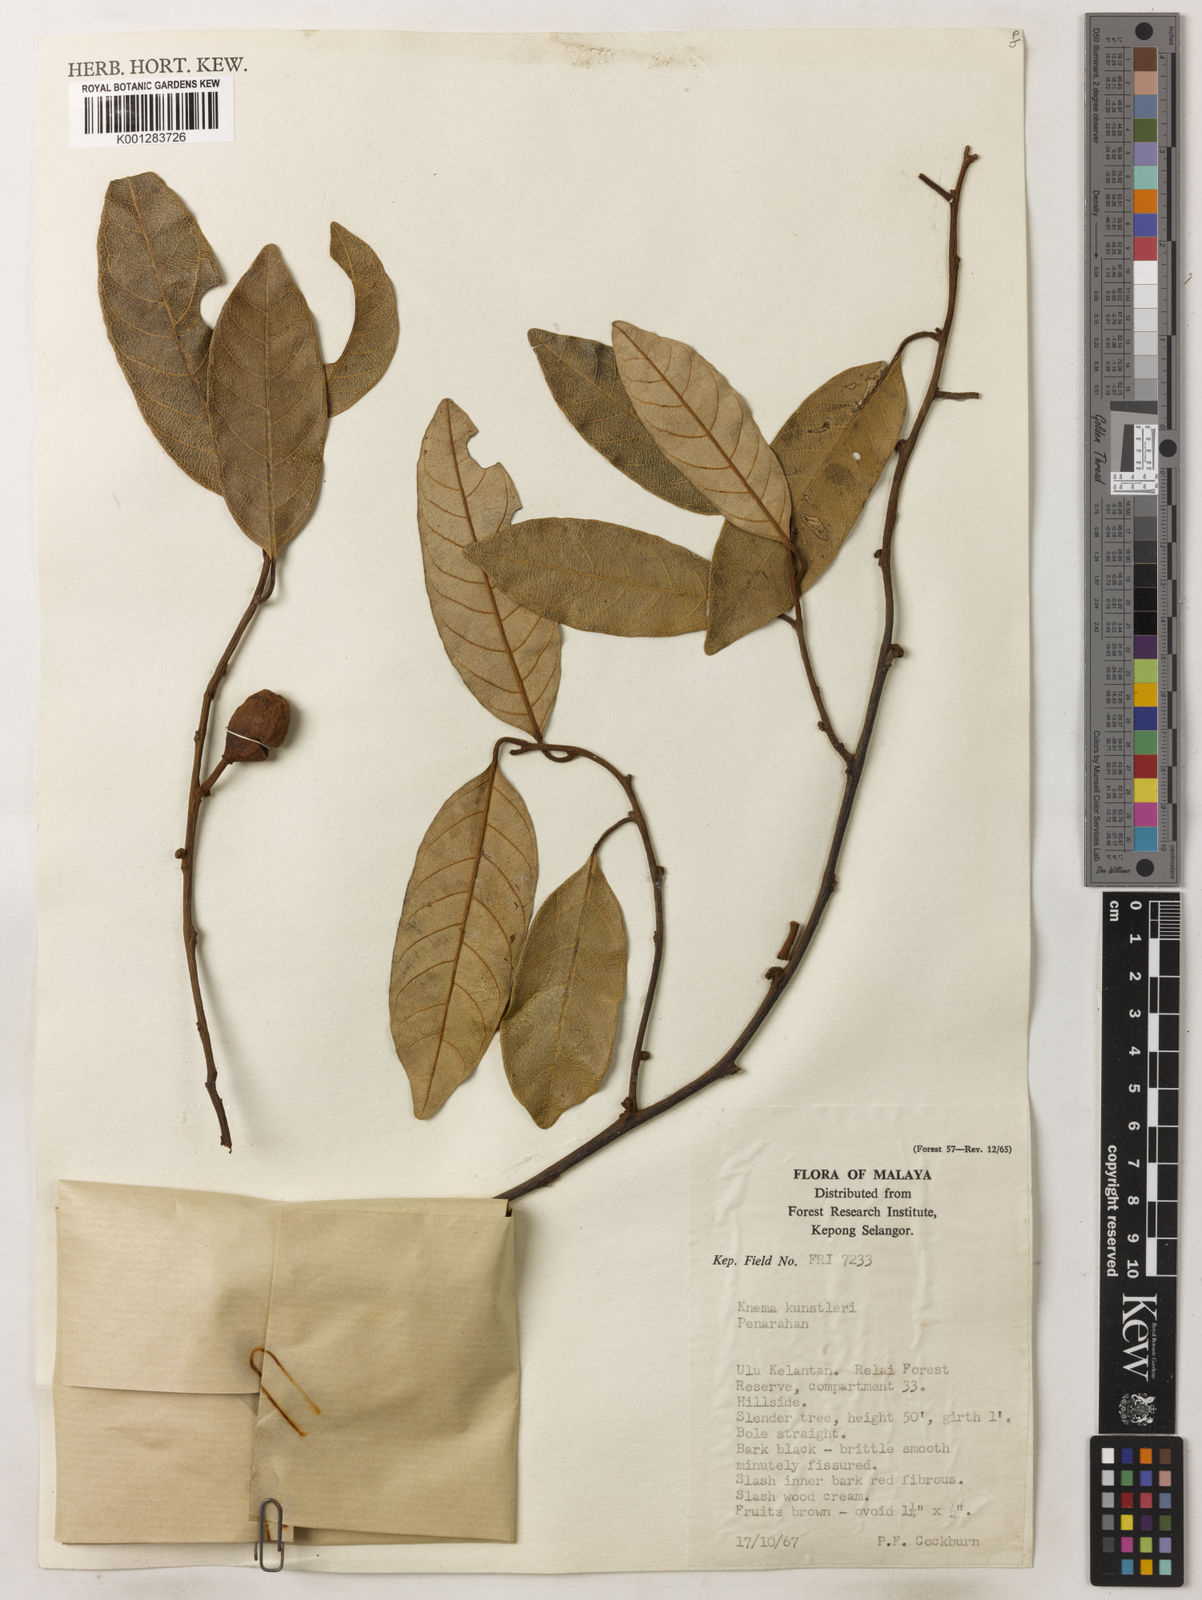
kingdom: Plantae
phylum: Tracheophyta
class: Magnoliopsida
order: Magnoliales
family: Myristicaceae
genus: Knema
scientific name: Knema kunstleri
